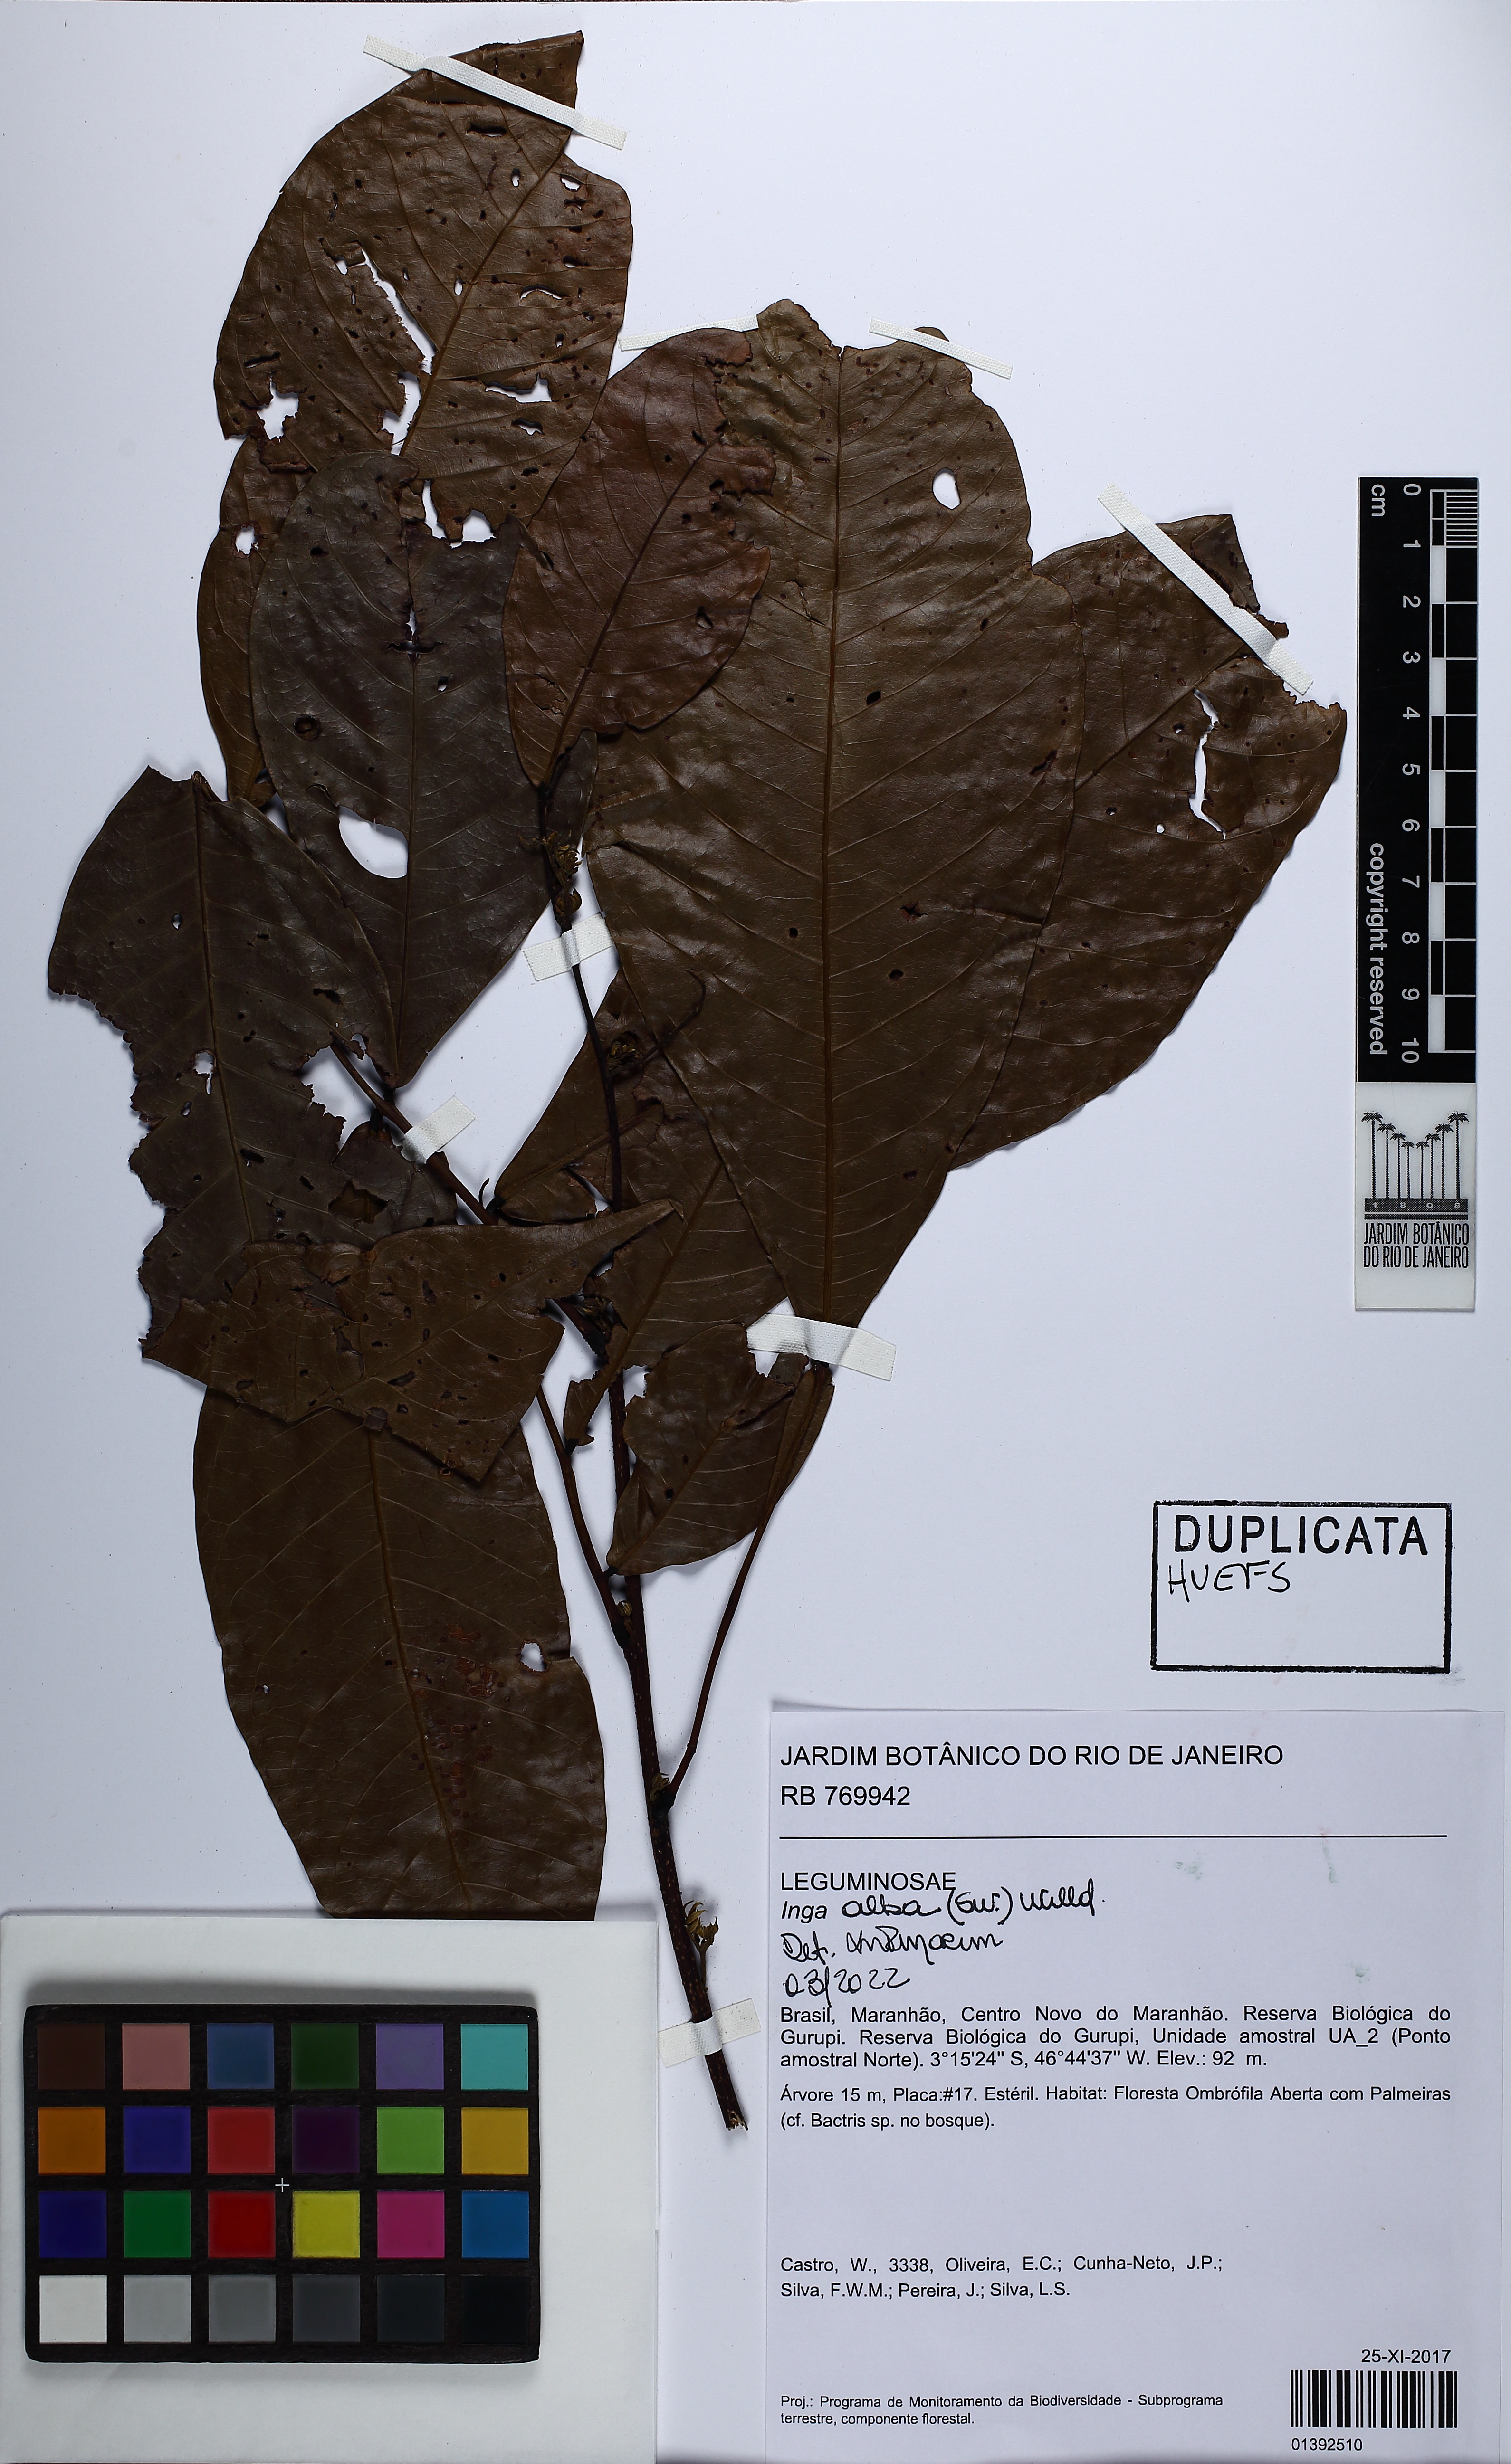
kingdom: Plantae
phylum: Tracheophyta
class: Magnoliopsida
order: Fabales
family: Fabaceae
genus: Inga
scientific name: Inga alba
